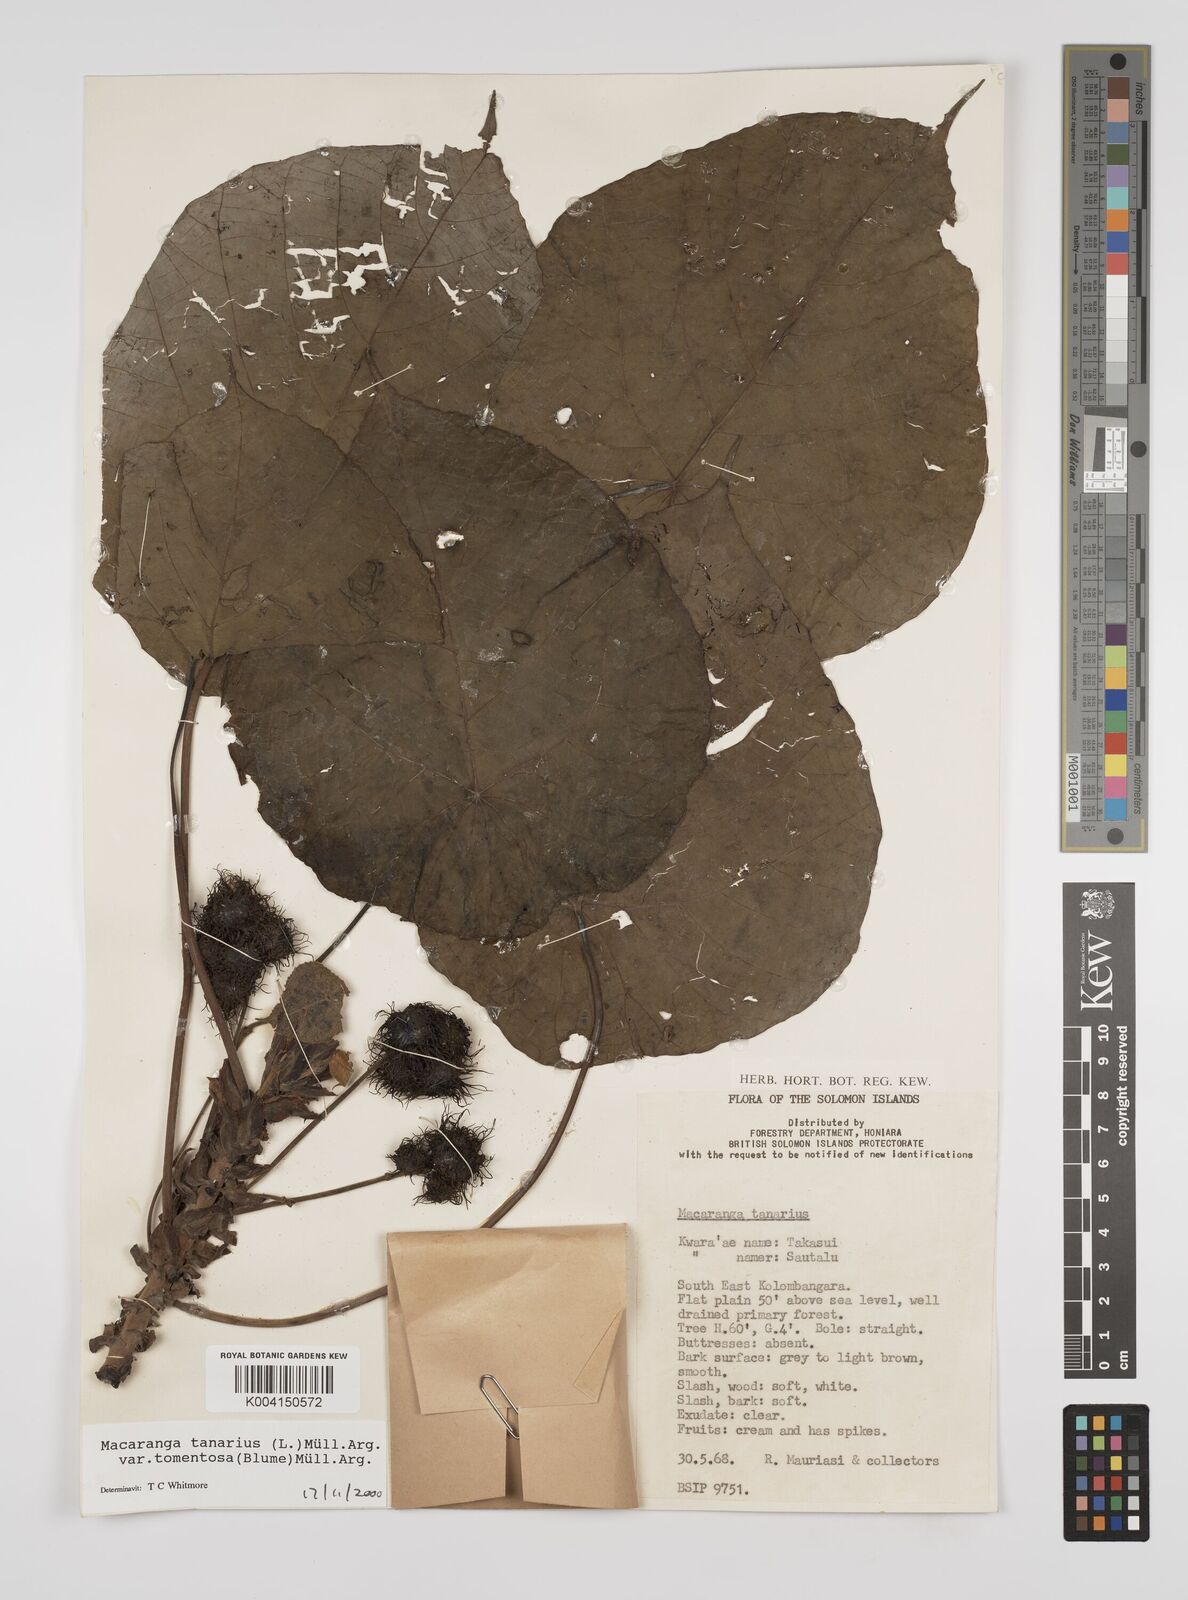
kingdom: Plantae
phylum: Tracheophyta
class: Magnoliopsida
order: Malpighiales
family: Euphorbiaceae
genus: Macaranga
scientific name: Macaranga tanarius
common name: Parasol leaf tree
